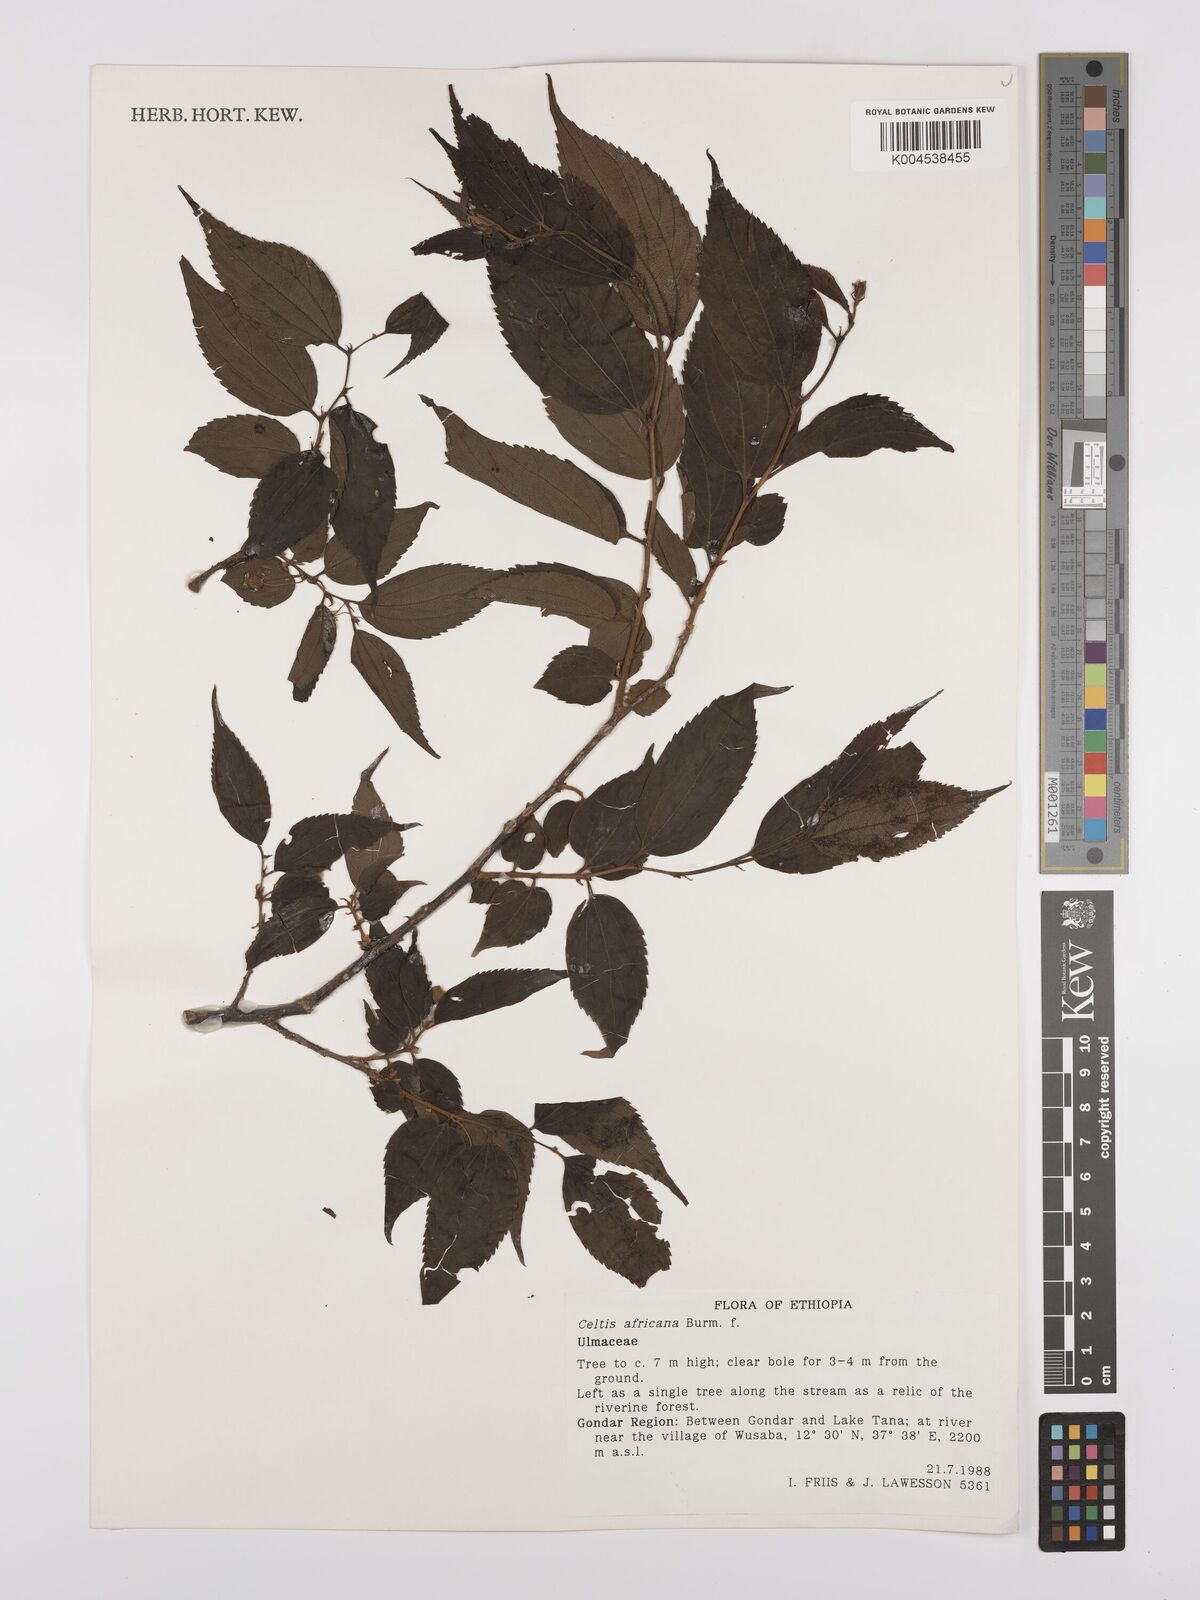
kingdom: Plantae
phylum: Tracheophyta
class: Magnoliopsida
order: Rosales
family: Cannabaceae
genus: Celtis
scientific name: Celtis africana
